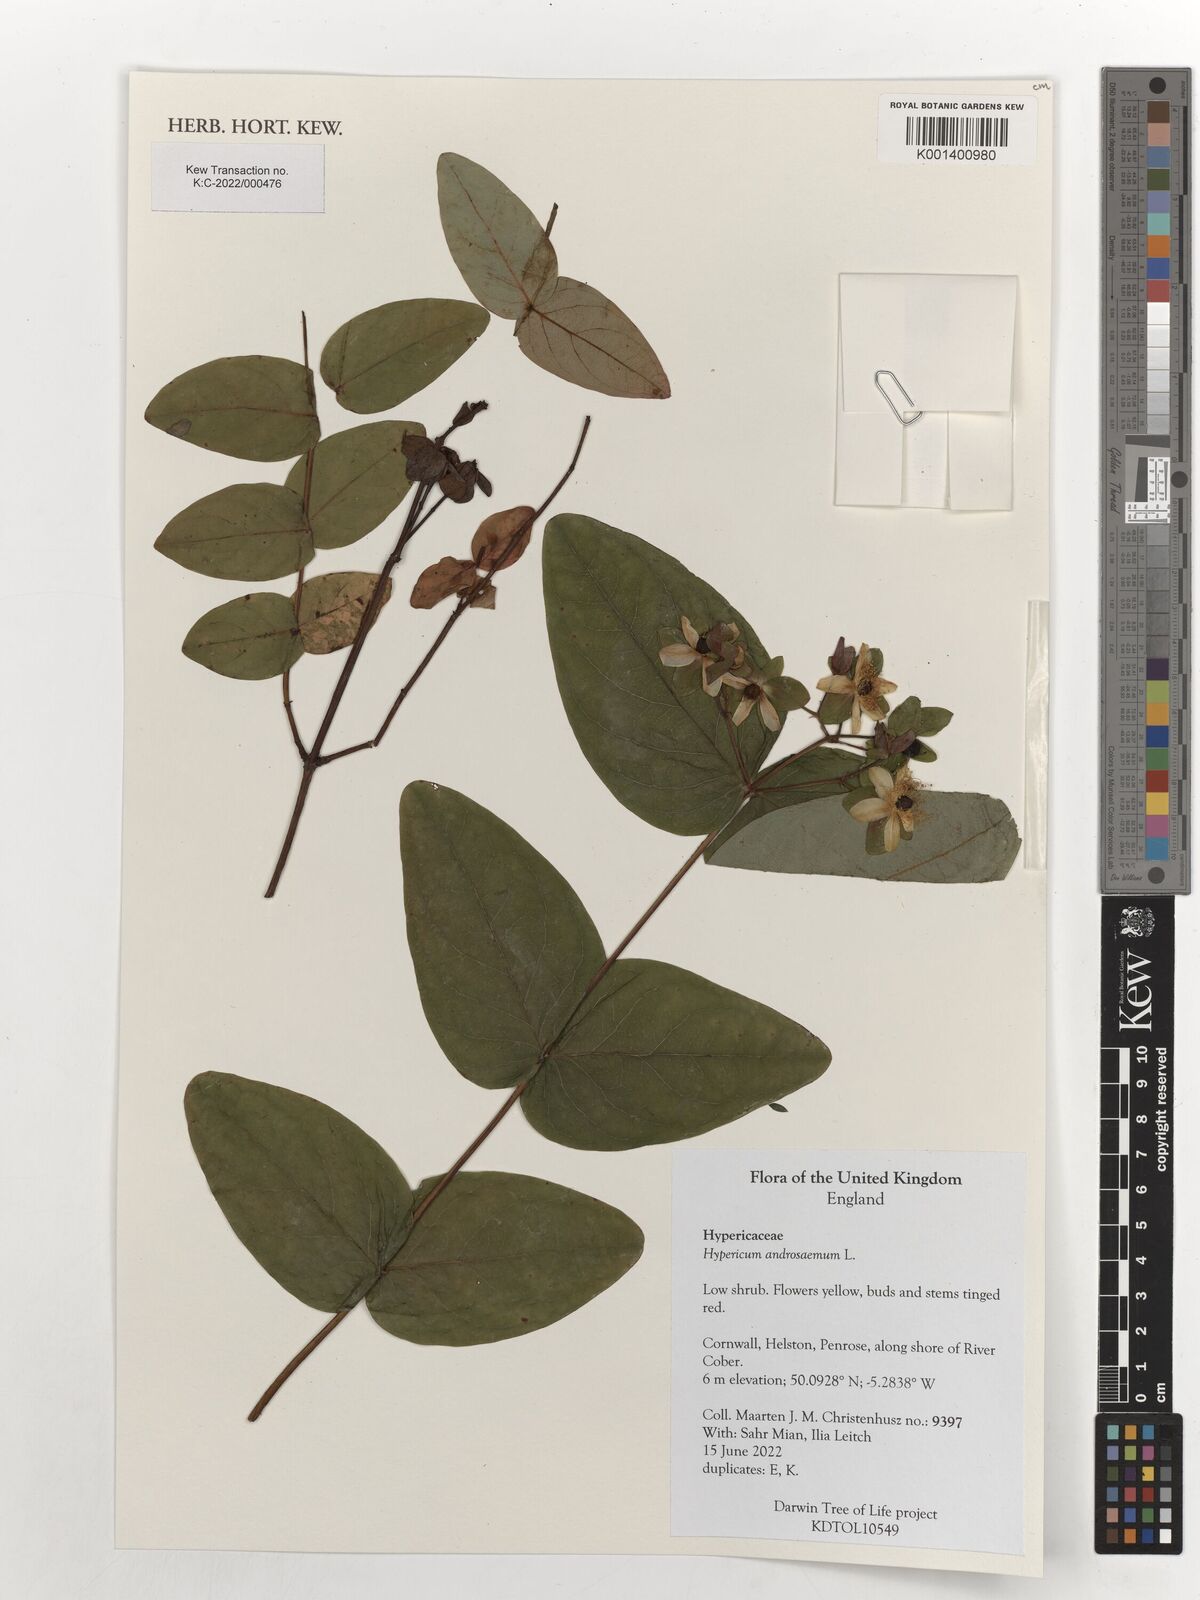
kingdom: Plantae
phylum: Tracheophyta
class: Magnoliopsida
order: Malpighiales
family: Hypericaceae
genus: Hypericum
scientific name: Hypericum androsaemum
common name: Sweet-amber
